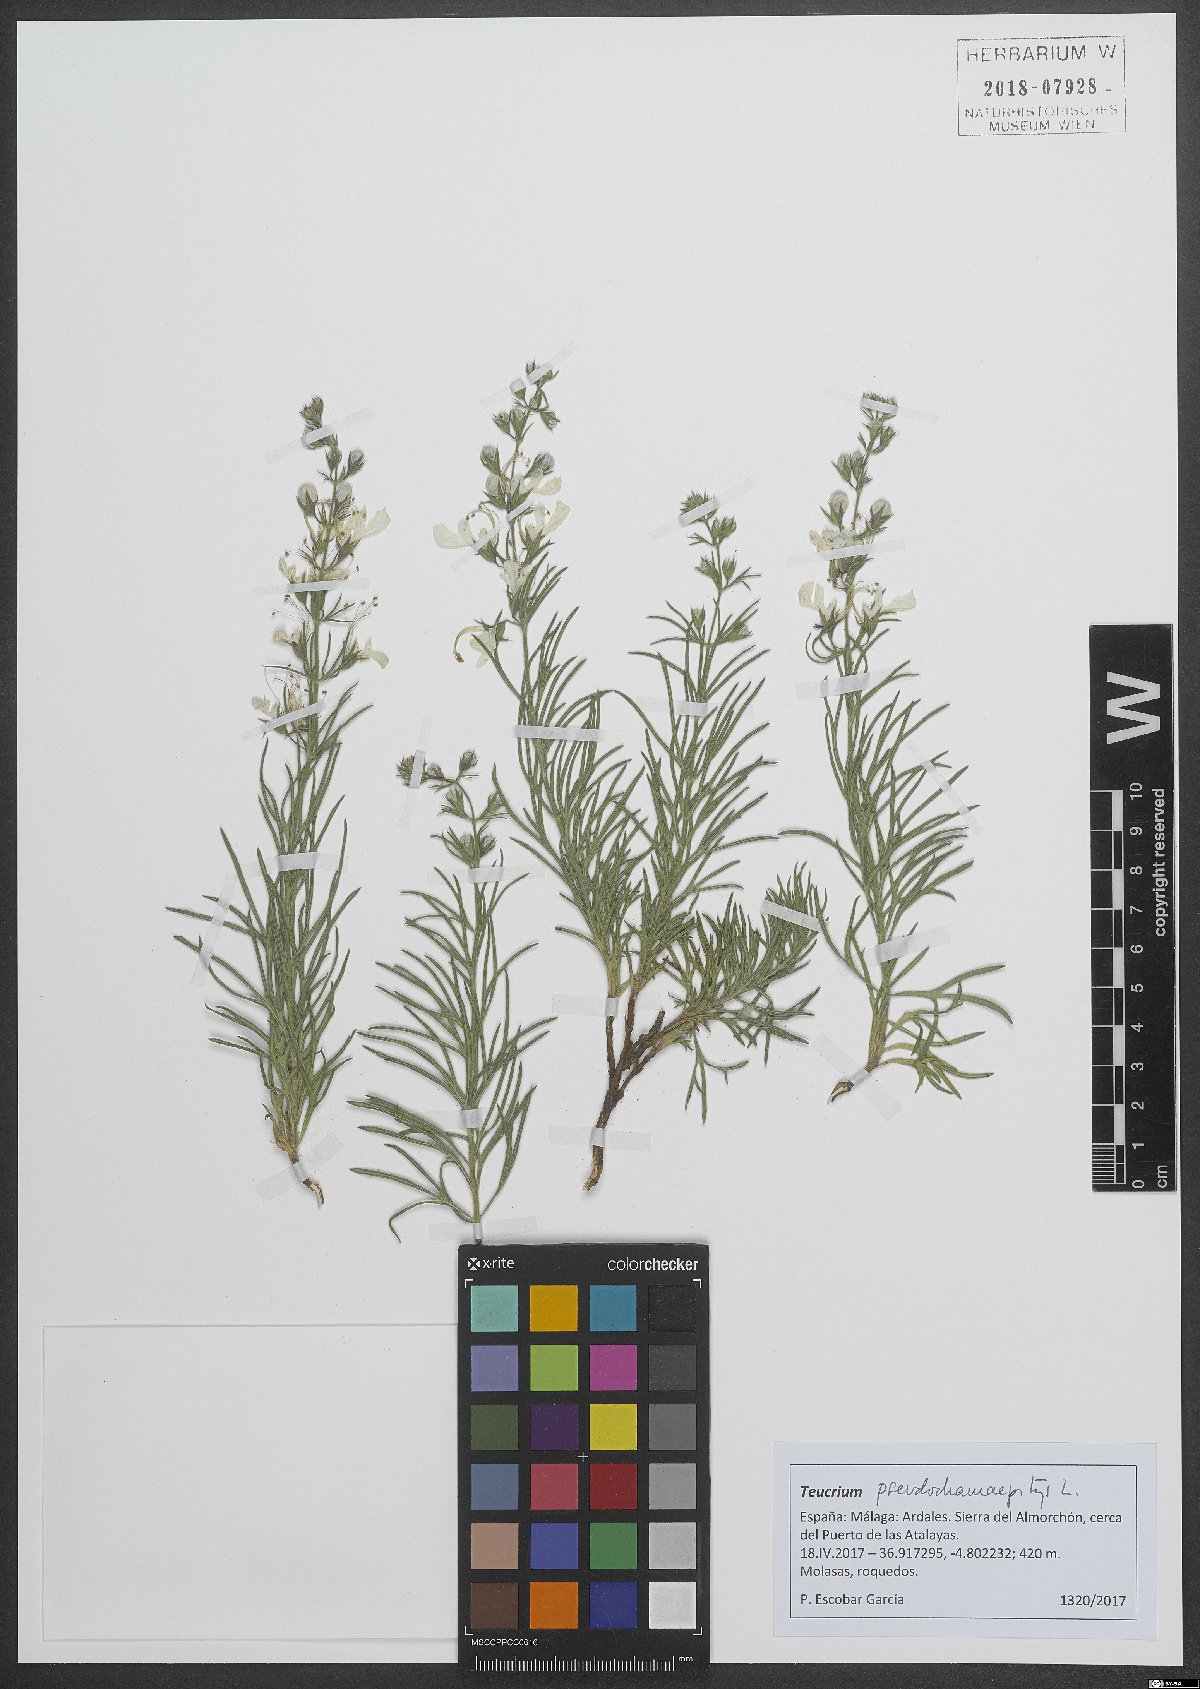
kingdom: Plantae
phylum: Tracheophyta
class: Magnoliopsida
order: Lamiales
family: Lamiaceae
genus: Teucrium
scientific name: Teucrium pseudochamaepitys
